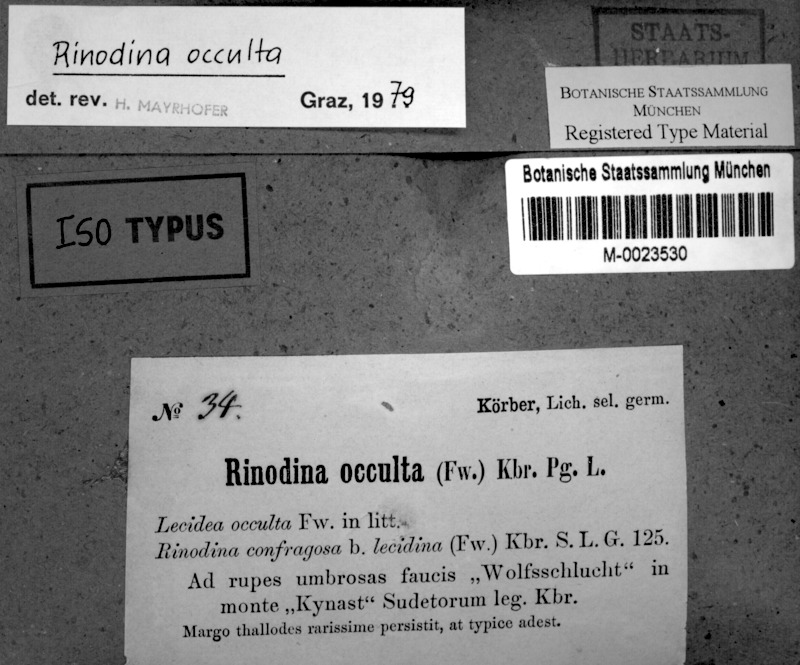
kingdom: Fungi
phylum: Ascomycota
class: Lecanoromycetes
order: Caliciales
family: Physciaceae
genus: Rinodina
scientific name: Rinodina occulta
